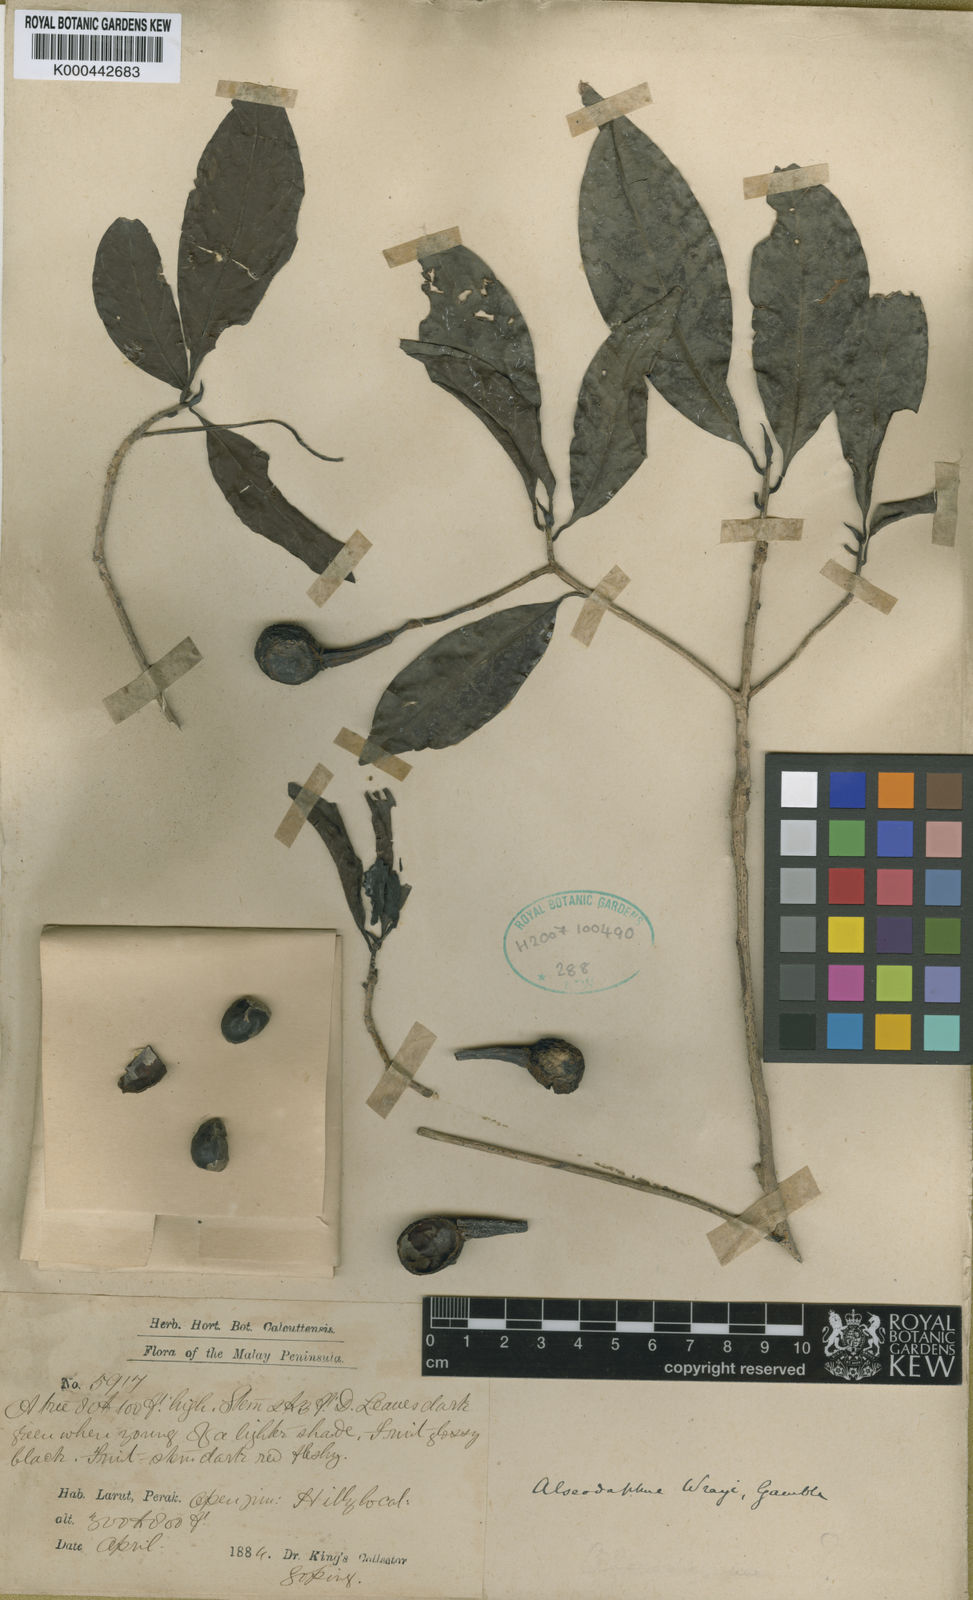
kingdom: Plantae
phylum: Tracheophyta
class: Magnoliopsida
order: Laurales
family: Lauraceae
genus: Alseodaphne
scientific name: Alseodaphne wrayi
